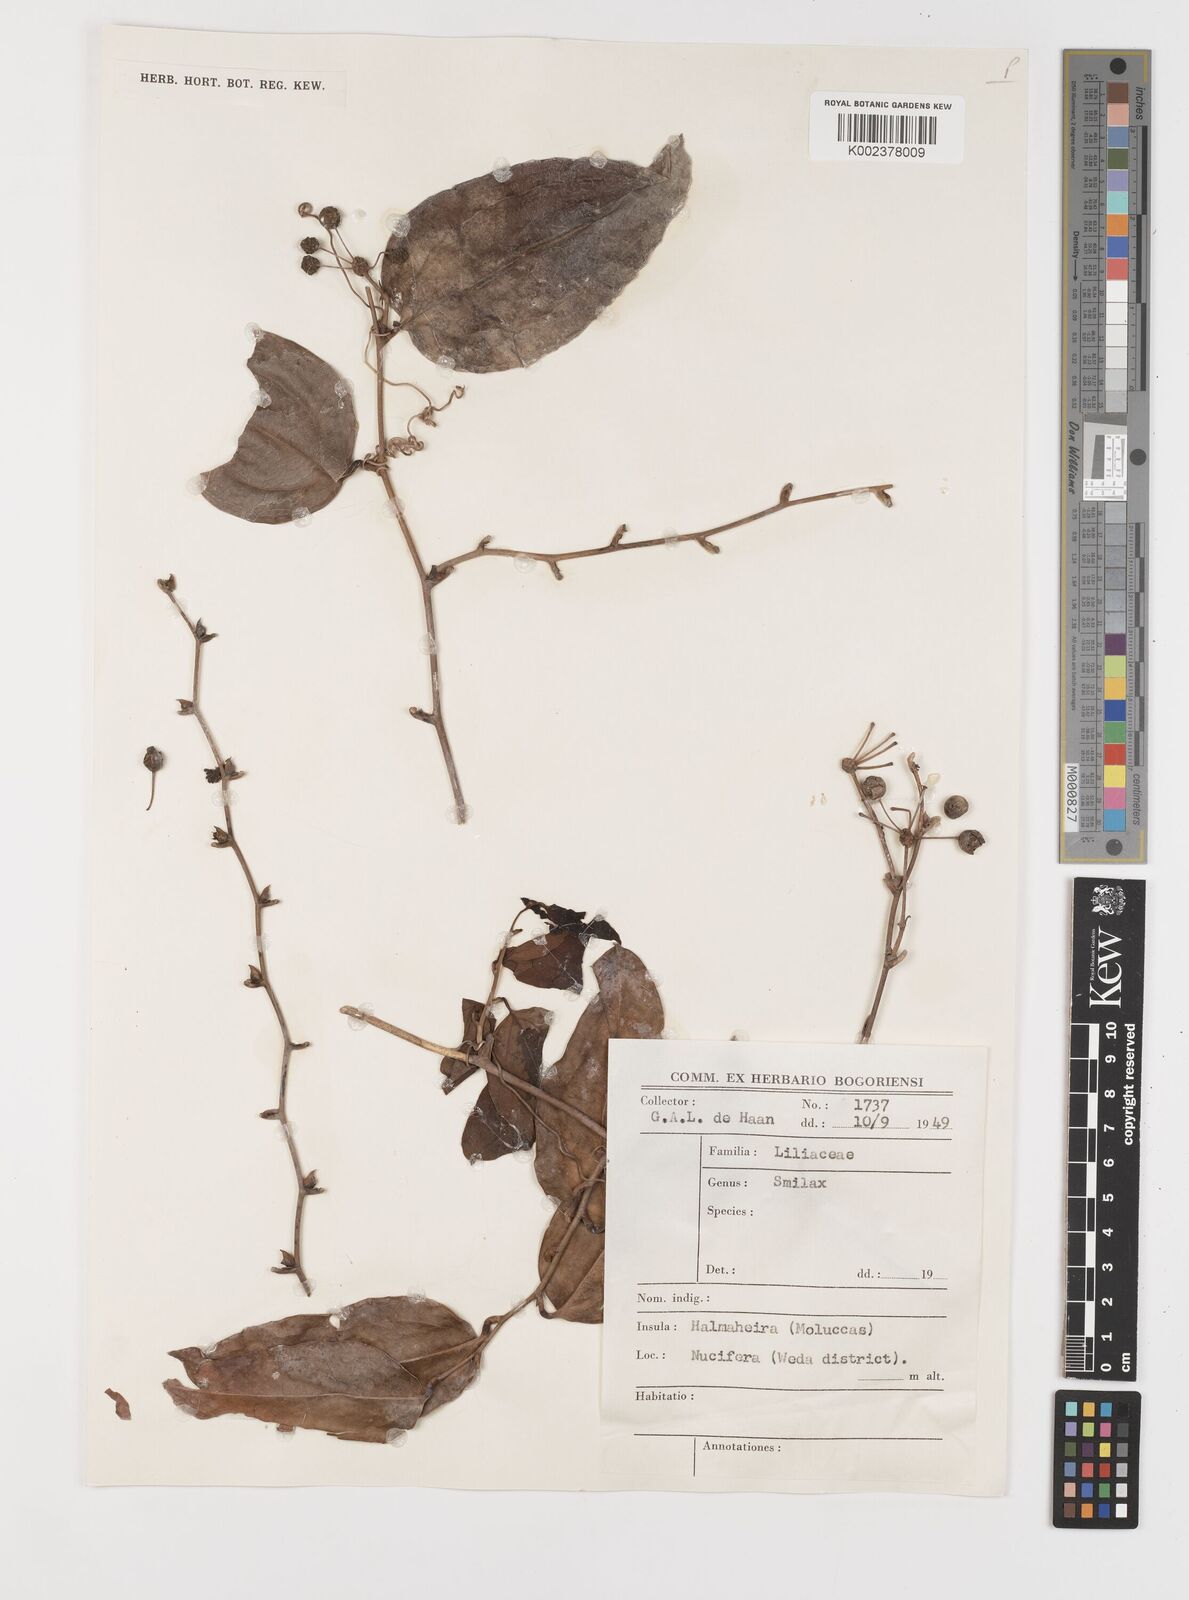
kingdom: Plantae
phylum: Tracheophyta
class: Liliopsida
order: Liliales
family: Smilacaceae
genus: Smilax
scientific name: Smilax
